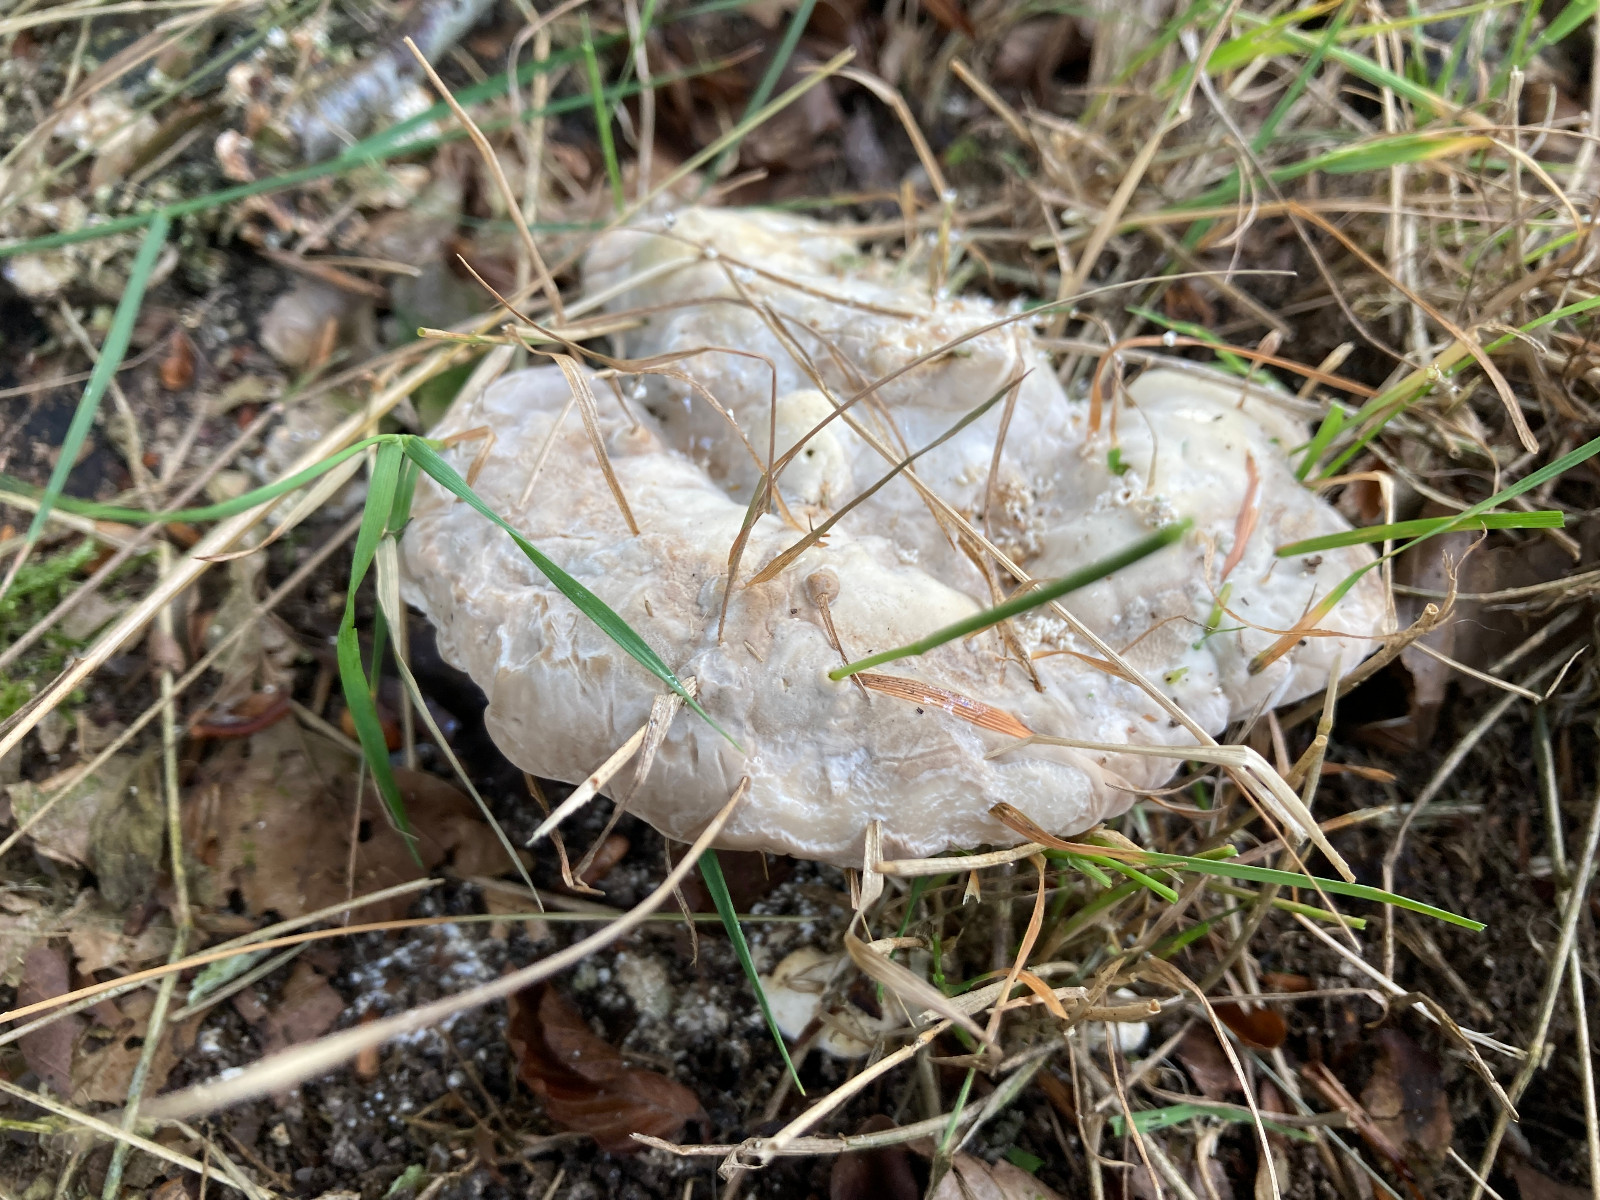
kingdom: Fungi
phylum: Basidiomycota
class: Agaricomycetes
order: Polyporales
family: Polyporaceae
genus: Trametes
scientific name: Trametes gibbosa
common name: puklet læderporesvamp
